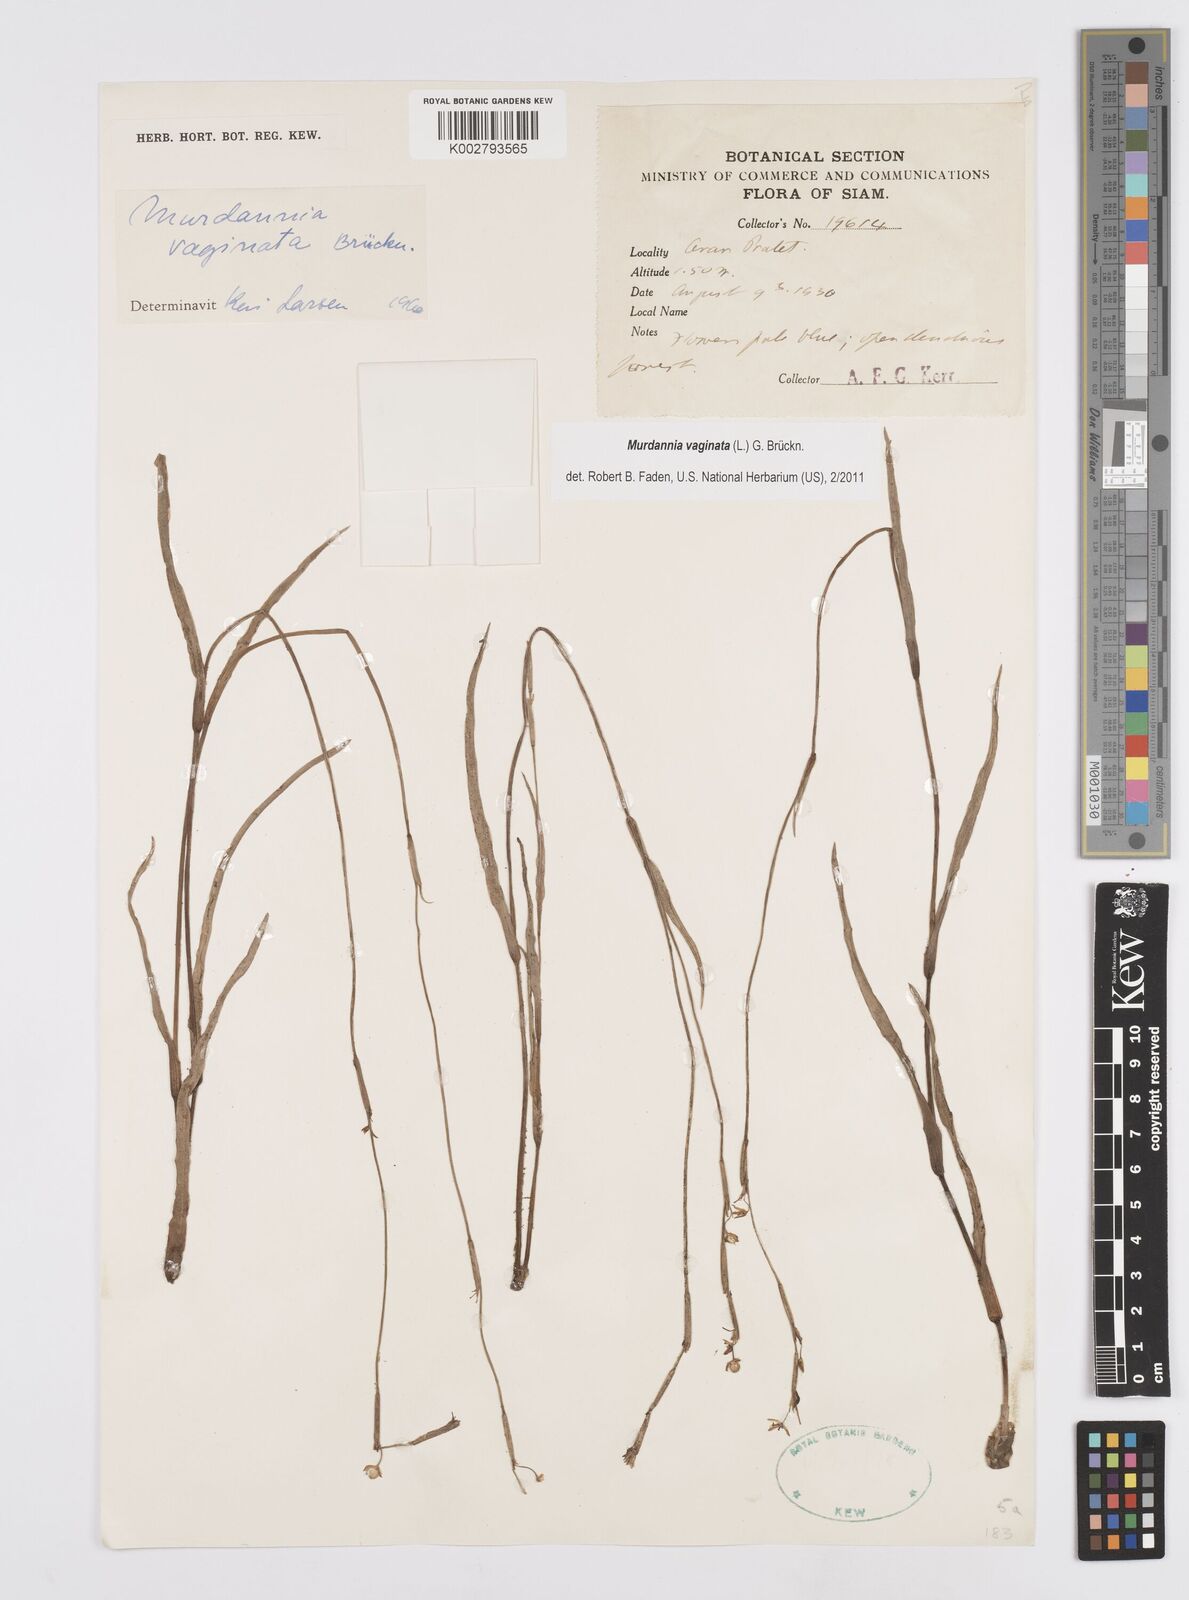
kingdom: Plantae
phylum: Tracheophyta
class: Liliopsida
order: Commelinales
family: Commelinaceae
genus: Murdannia
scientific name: Murdannia vaginata
